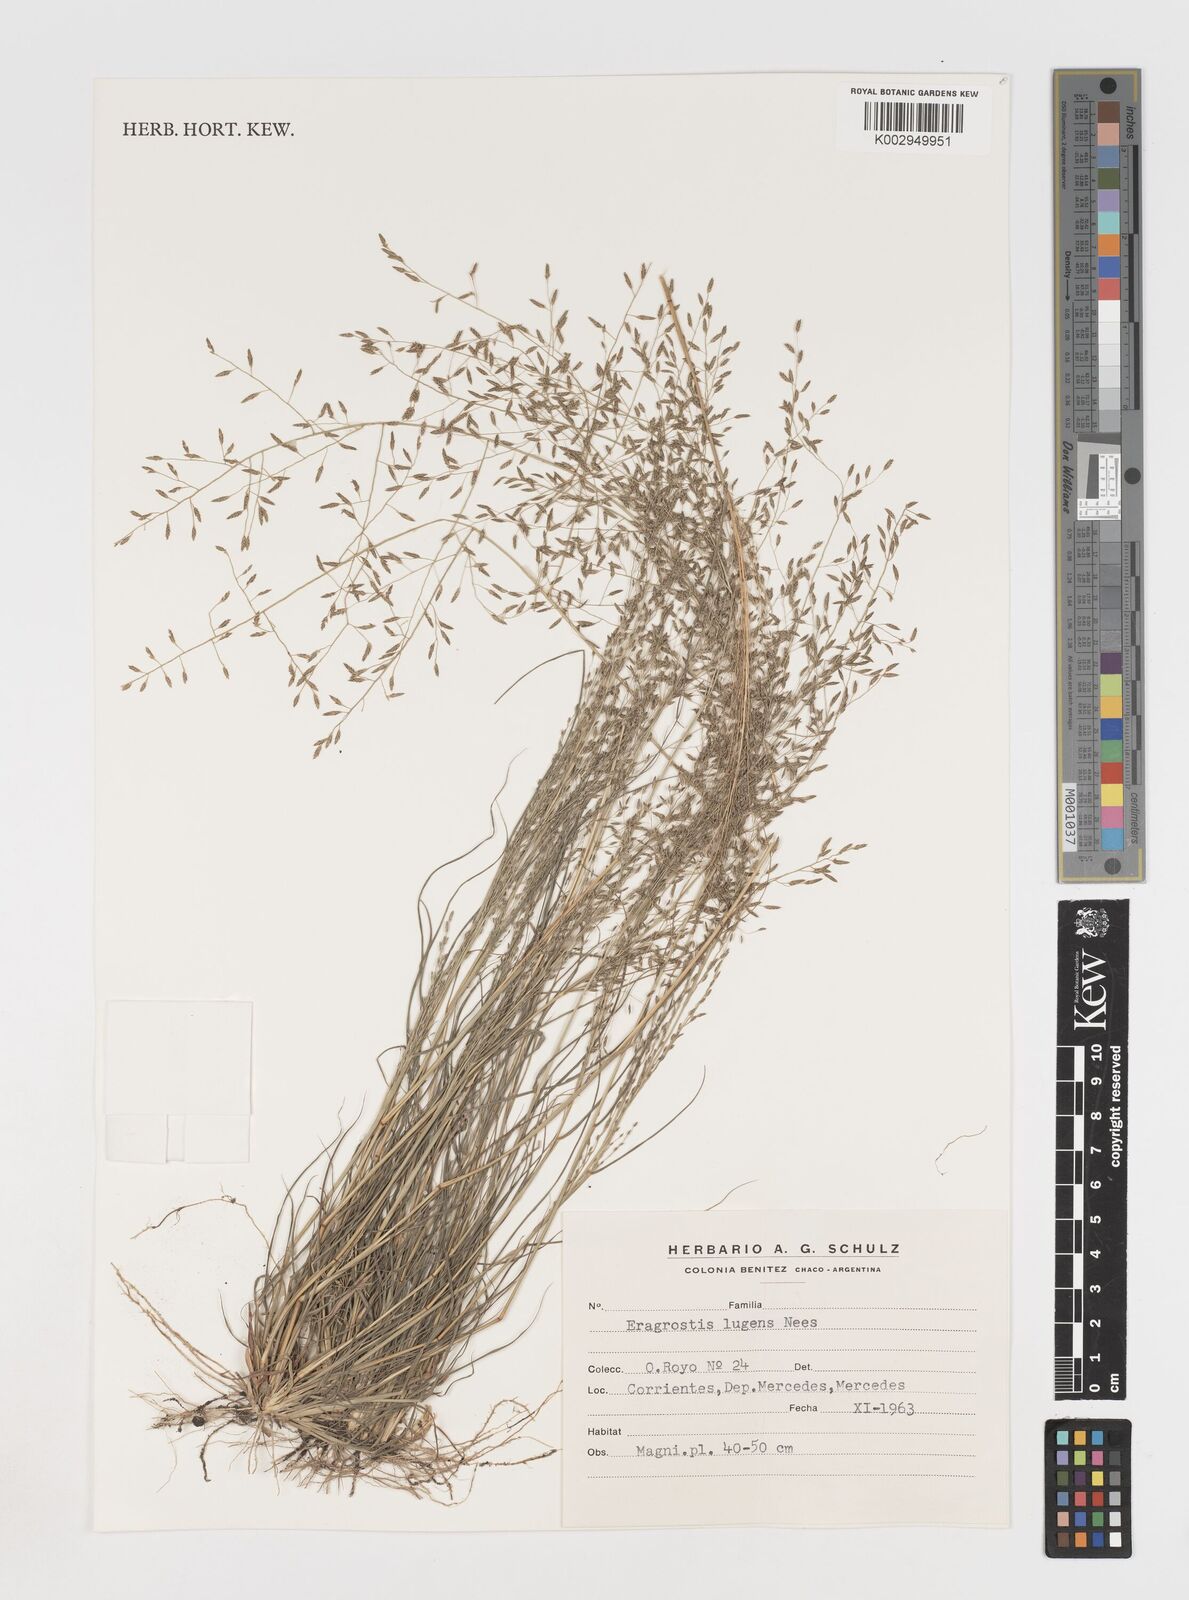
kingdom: Plantae
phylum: Tracheophyta
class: Liliopsida
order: Poales
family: Poaceae
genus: Eragrostis
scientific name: Eragrostis
